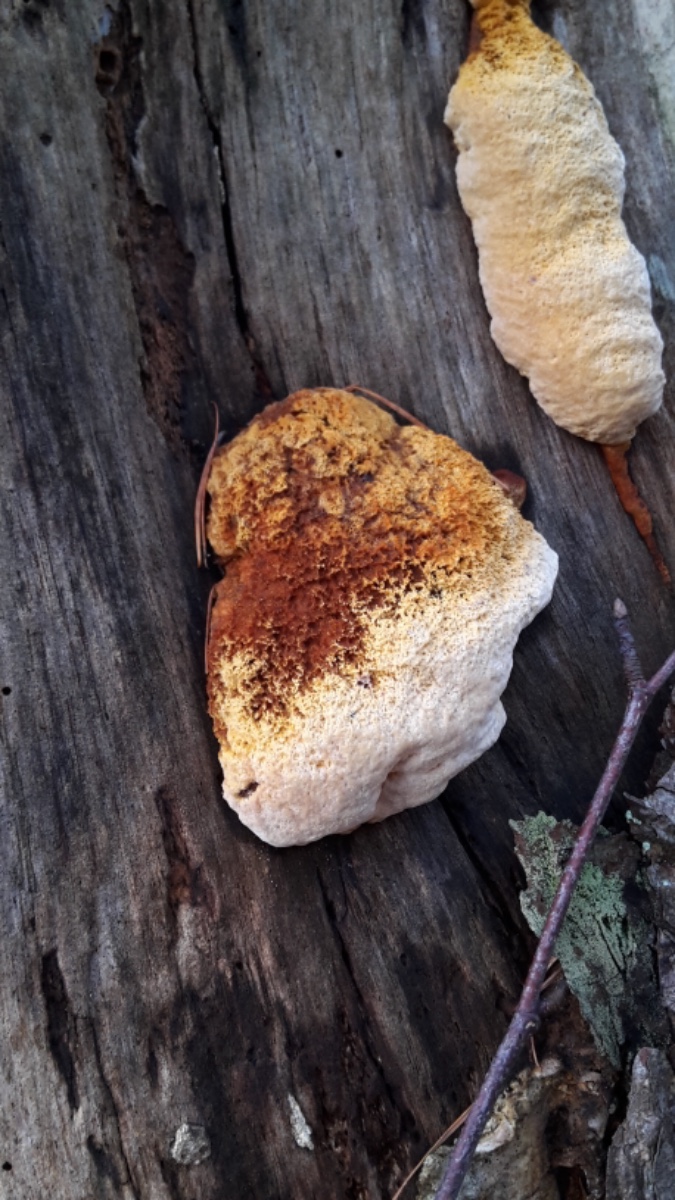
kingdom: Fungi
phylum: Basidiomycota
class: Agaricomycetes
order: Gloeophyllales
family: Gloeophyllaceae
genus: Gloeophyllum
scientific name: Gloeophyllum odoratum
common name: duftende korkhat
